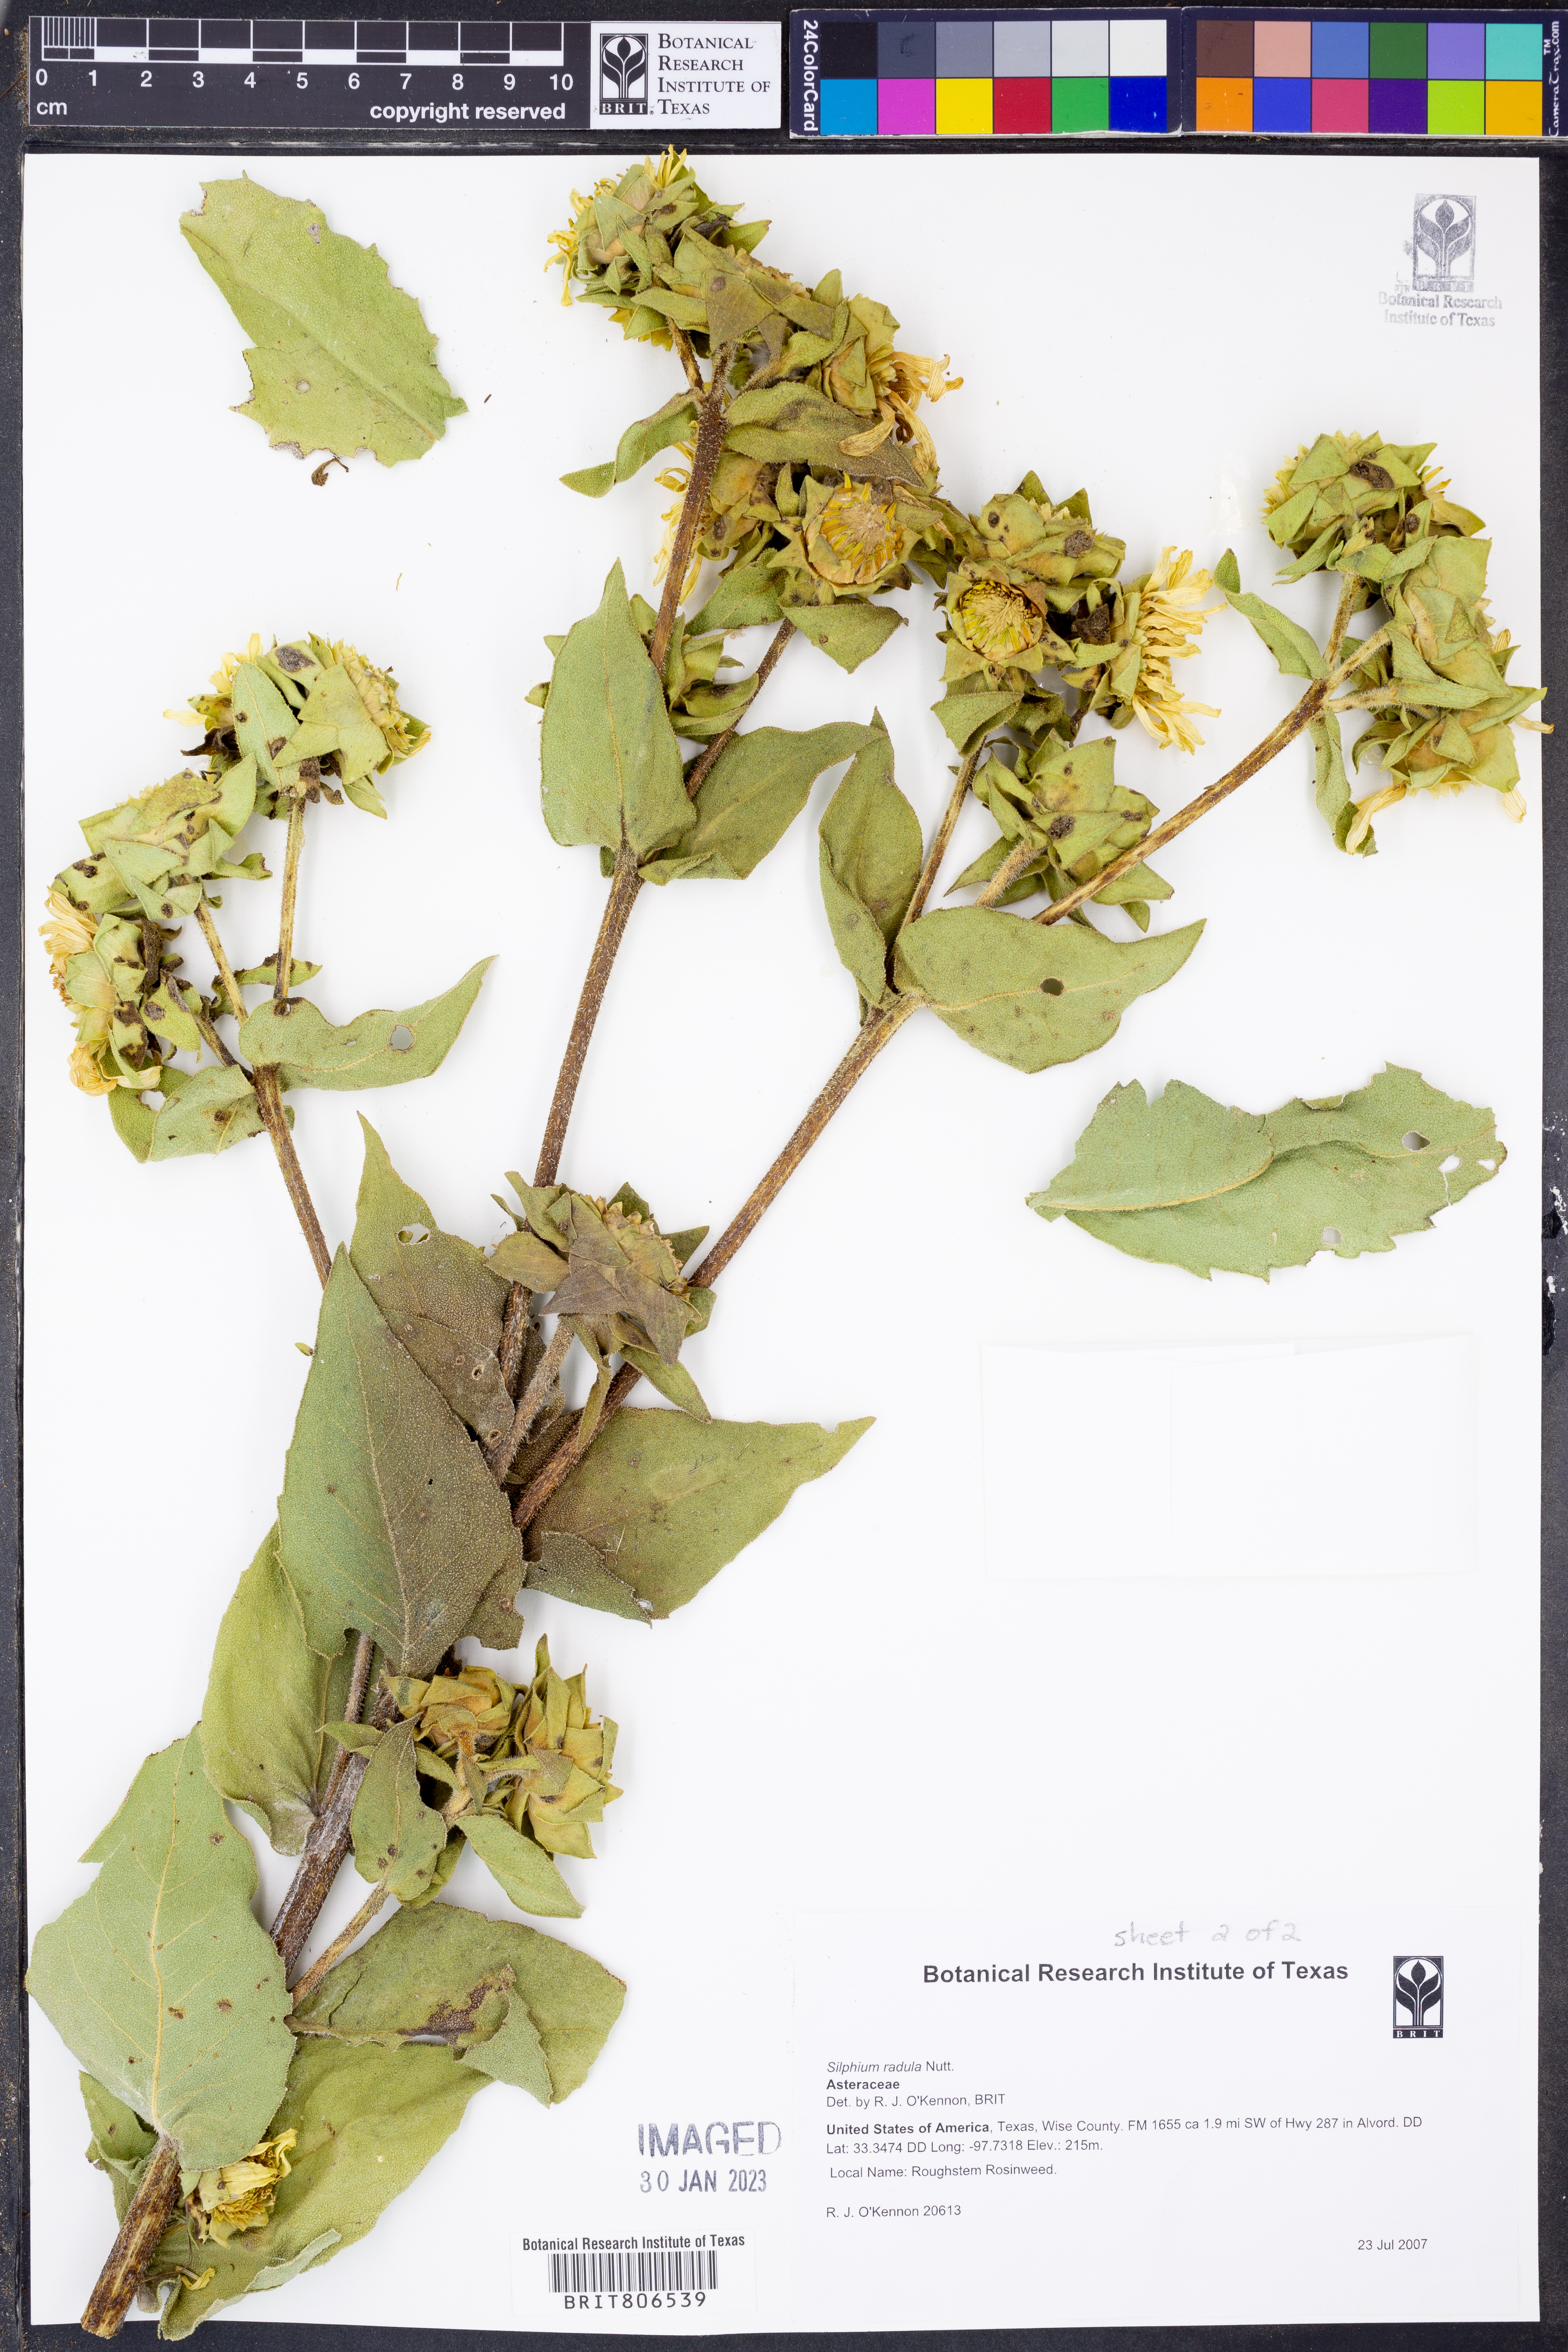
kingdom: Plantae
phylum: Tracheophyta
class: Magnoliopsida
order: Asterales
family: Asteraceae
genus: Silphium
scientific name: Silphium radula
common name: Roughleaf rosinweed
